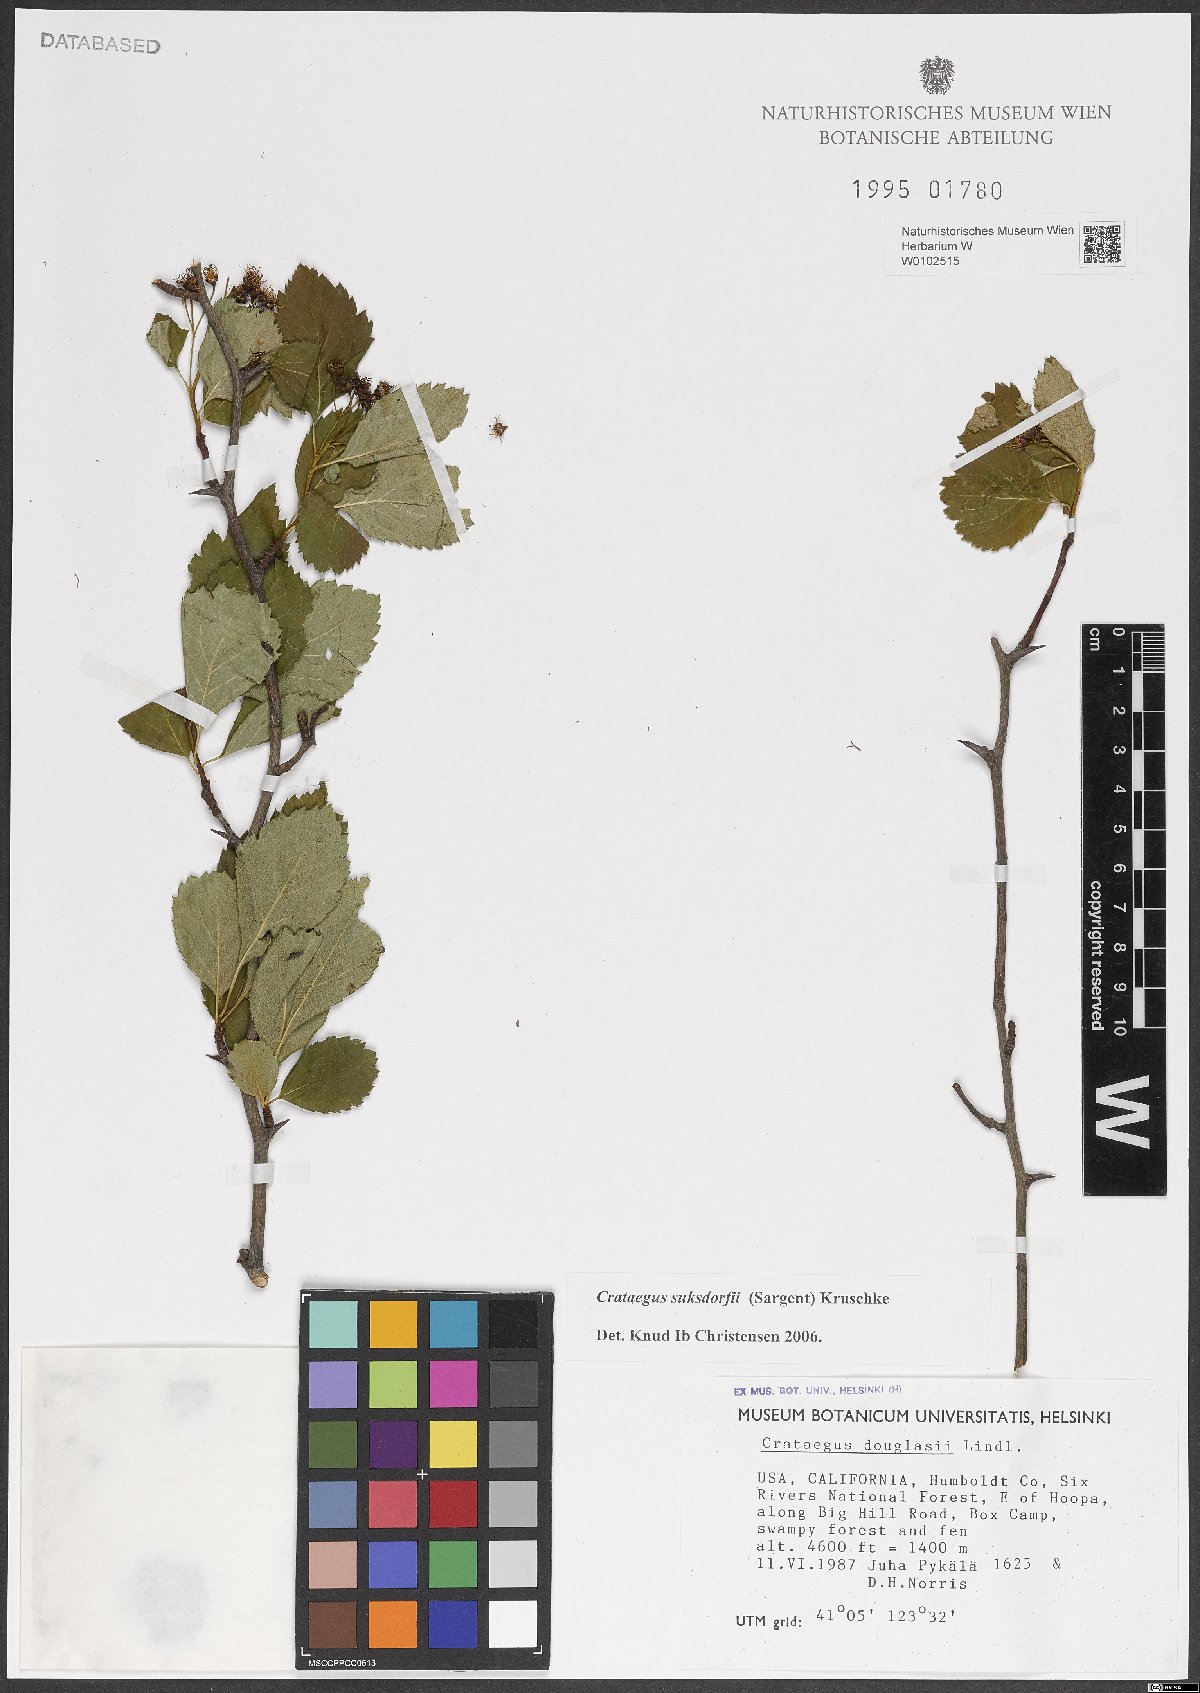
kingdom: Plantae
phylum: Tracheophyta
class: Magnoliopsida
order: Rosales
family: Rosaceae
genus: Crataegus
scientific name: Crataegus gaylussacia
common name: Huckleberry hawthorn
